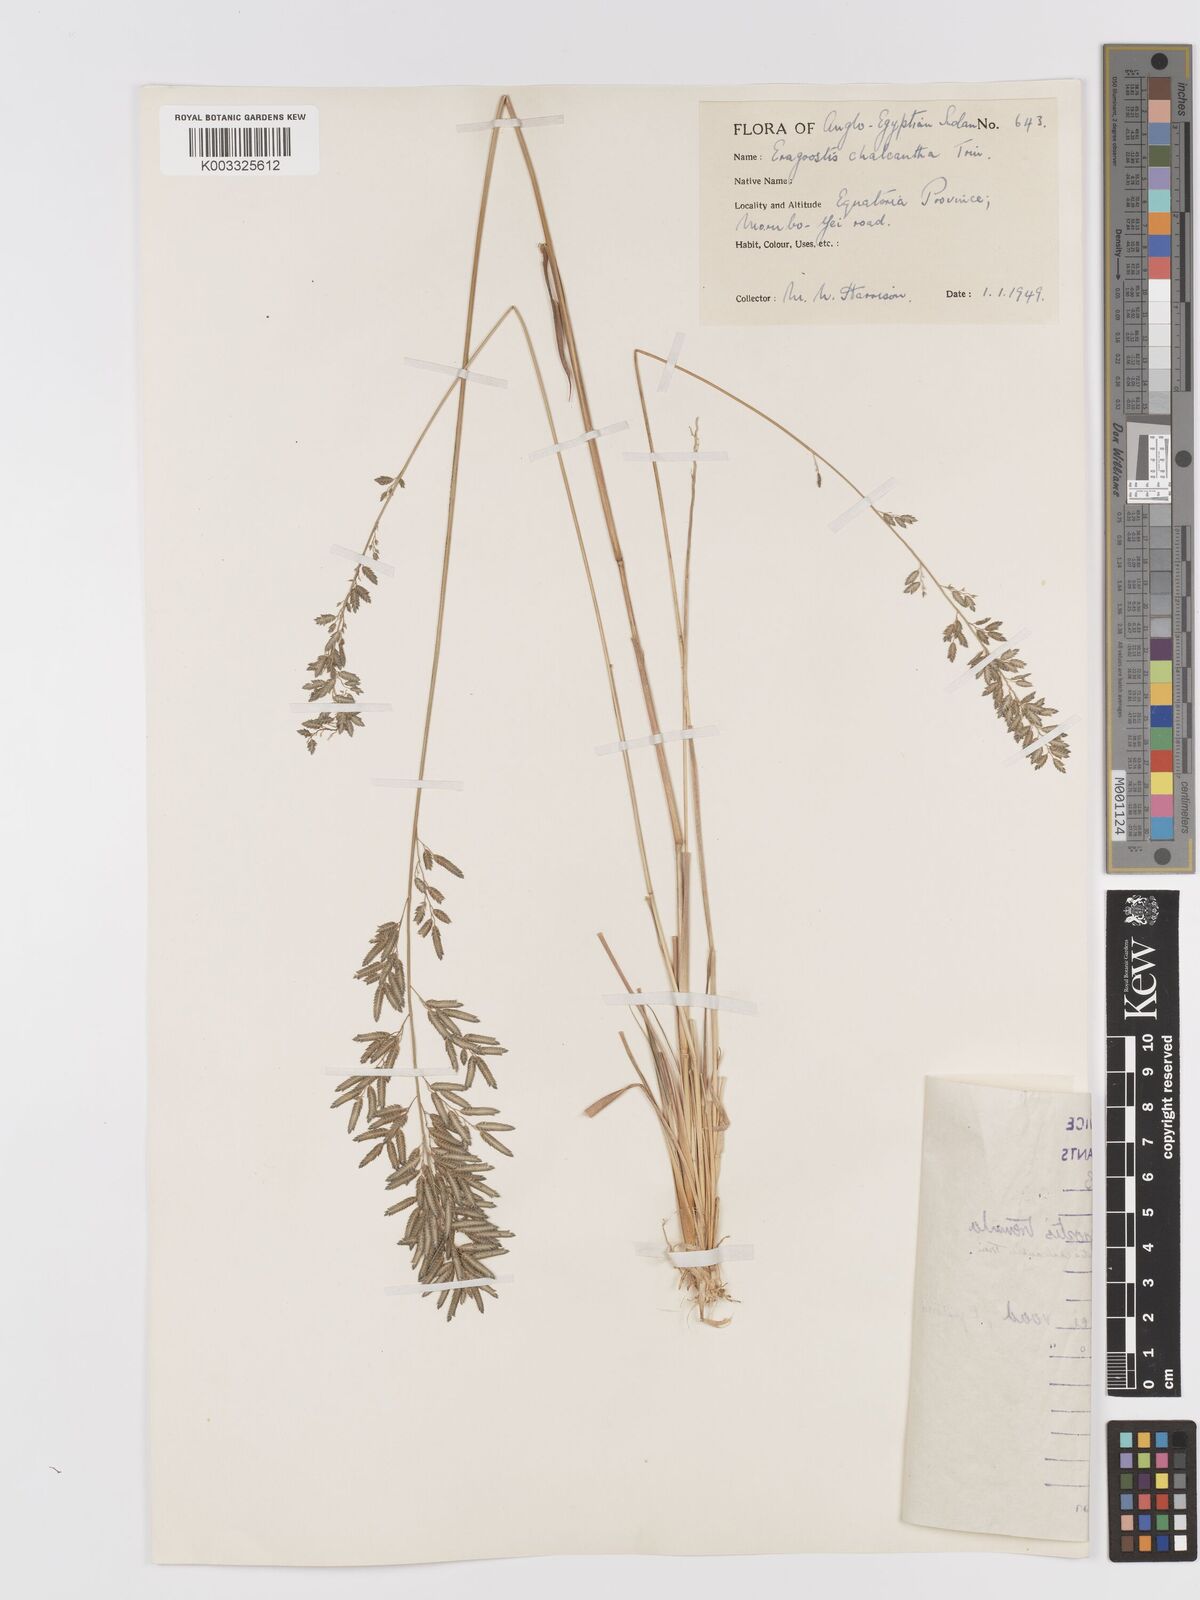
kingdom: Plantae
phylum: Tracheophyta
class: Liliopsida
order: Poales
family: Poaceae
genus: Eragrostis
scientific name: Eragrostis racemosa
